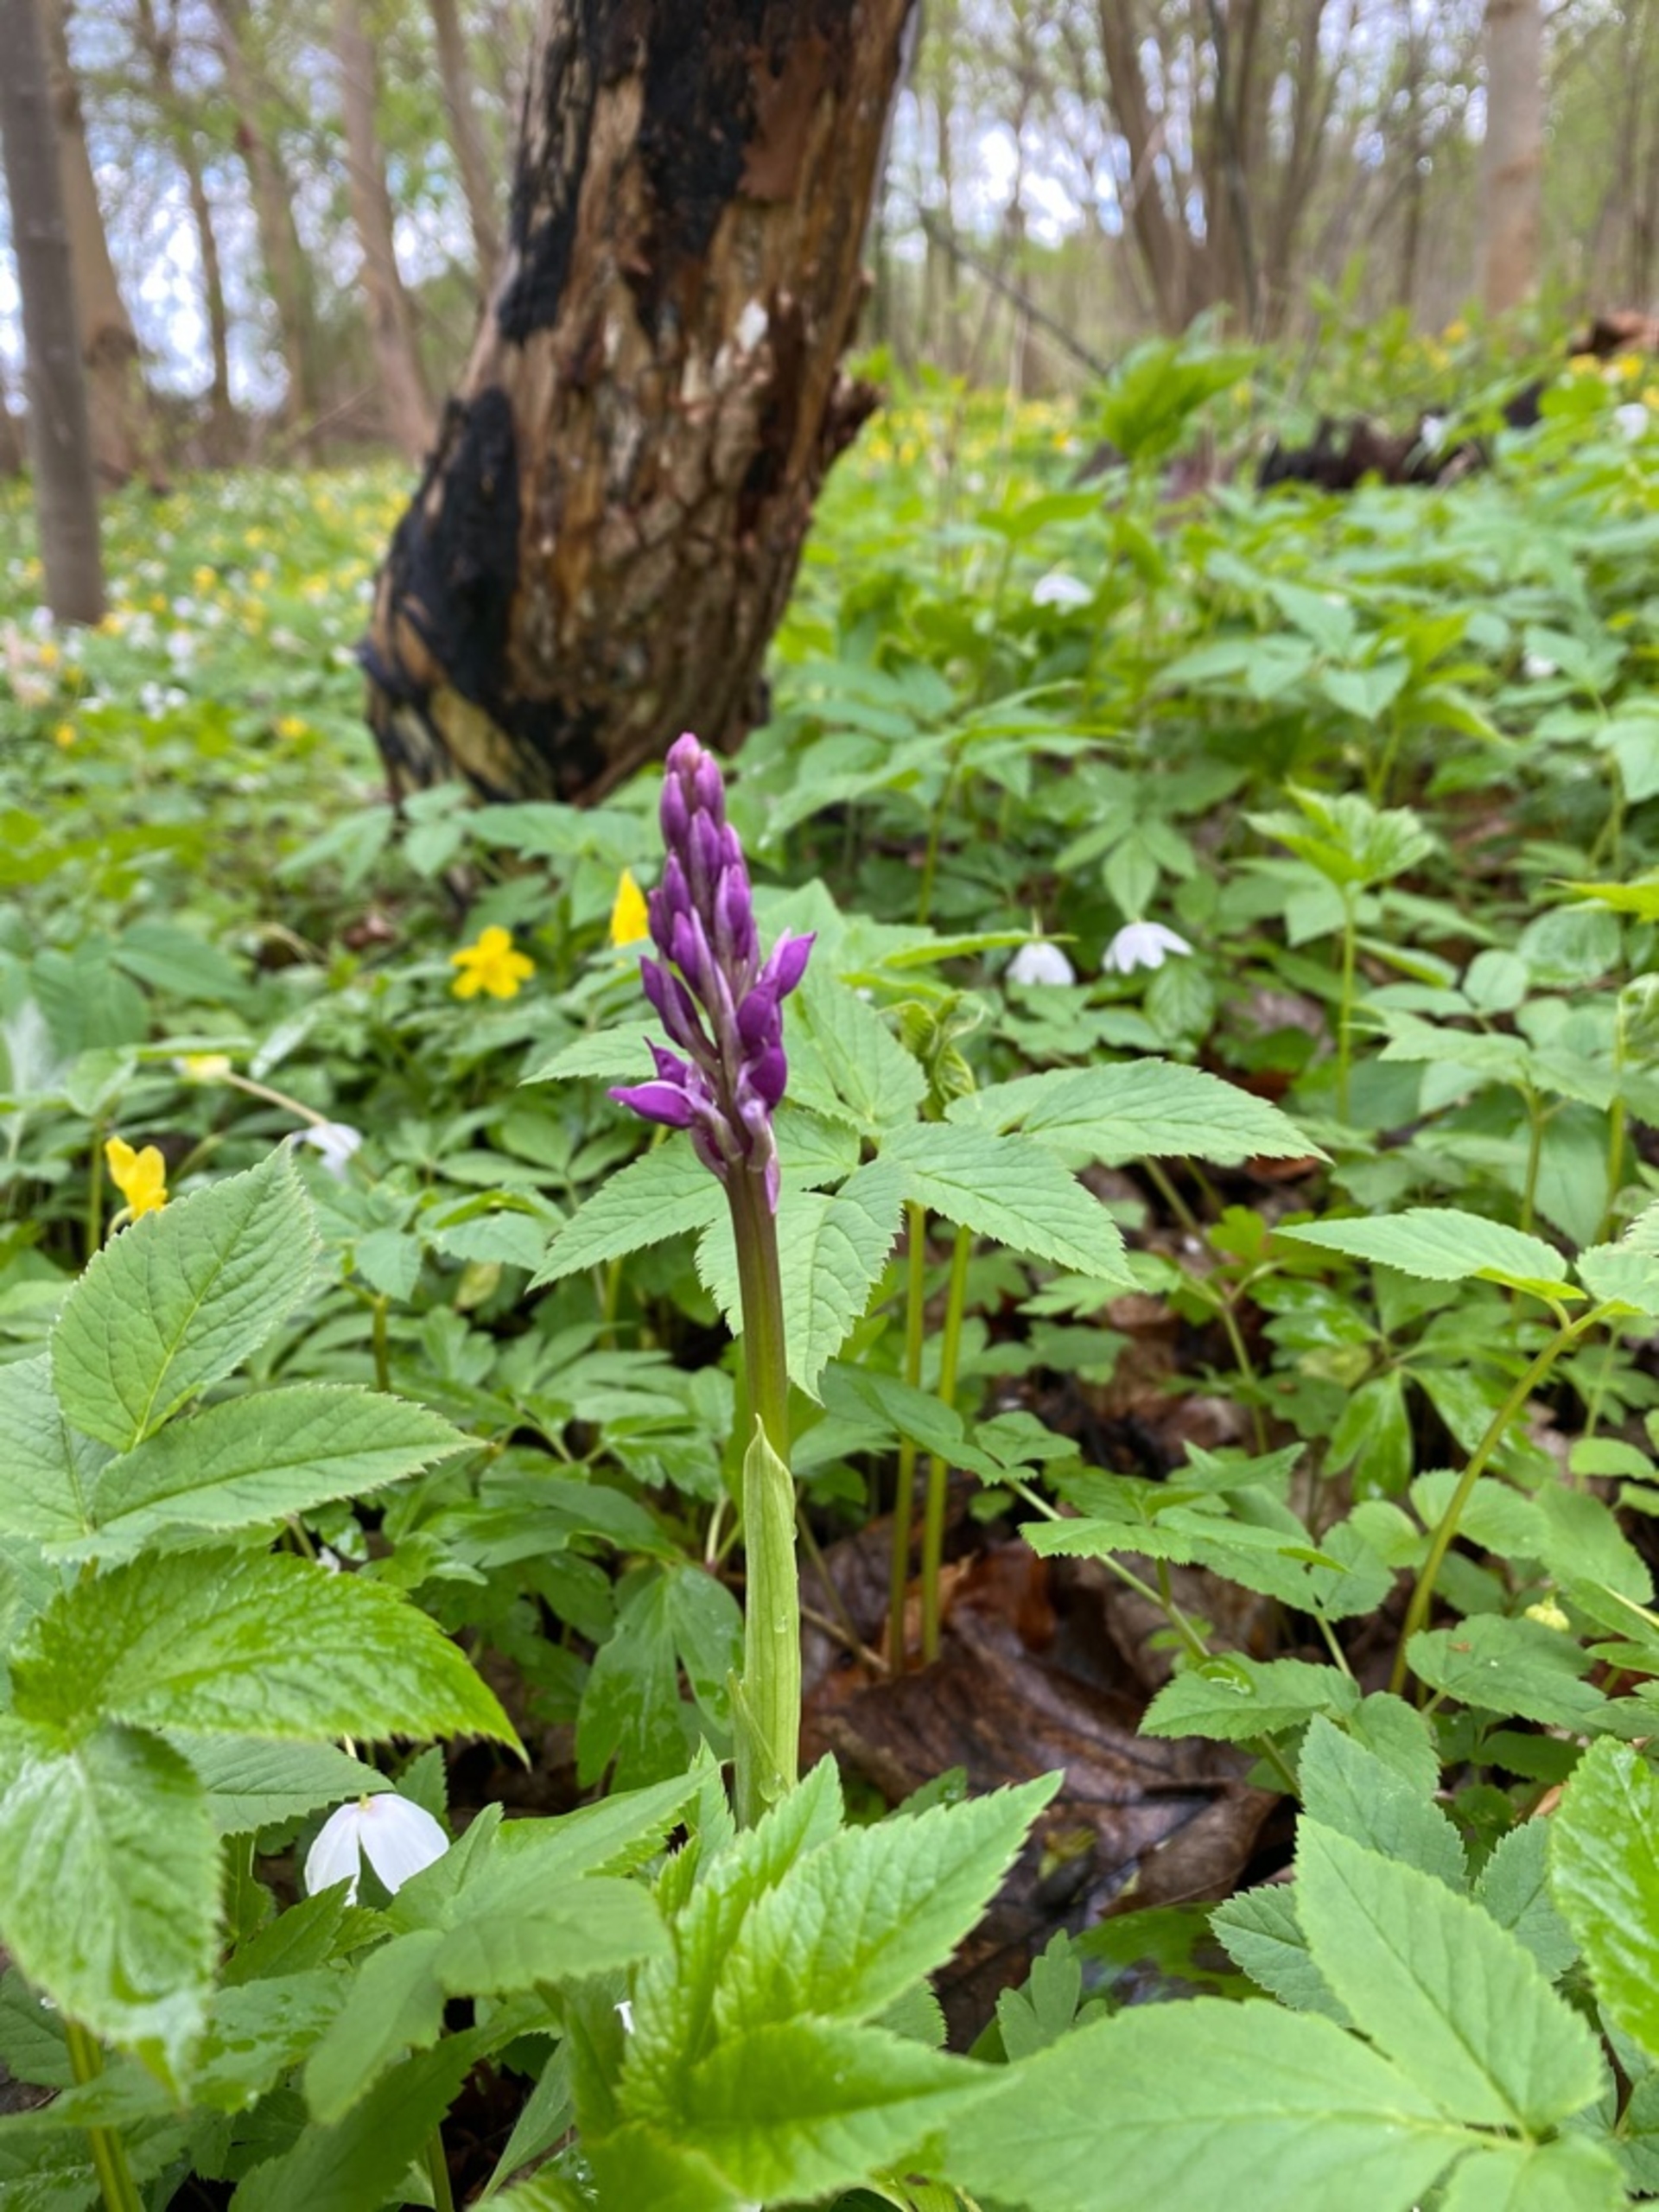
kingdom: Plantae
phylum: Tracheophyta
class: Liliopsida
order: Asparagales
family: Orchidaceae
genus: Orchis
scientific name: Orchis mascula
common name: Tyndakset gøgeurt
